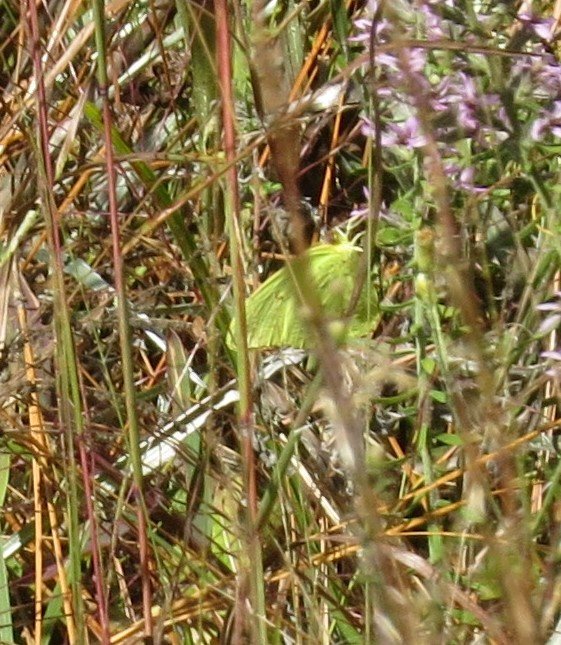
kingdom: Animalia
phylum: Arthropoda
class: Insecta
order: Lepidoptera
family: Pieridae
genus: Phoebis
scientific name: Phoebis sennae
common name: Cloudless Sulphur
